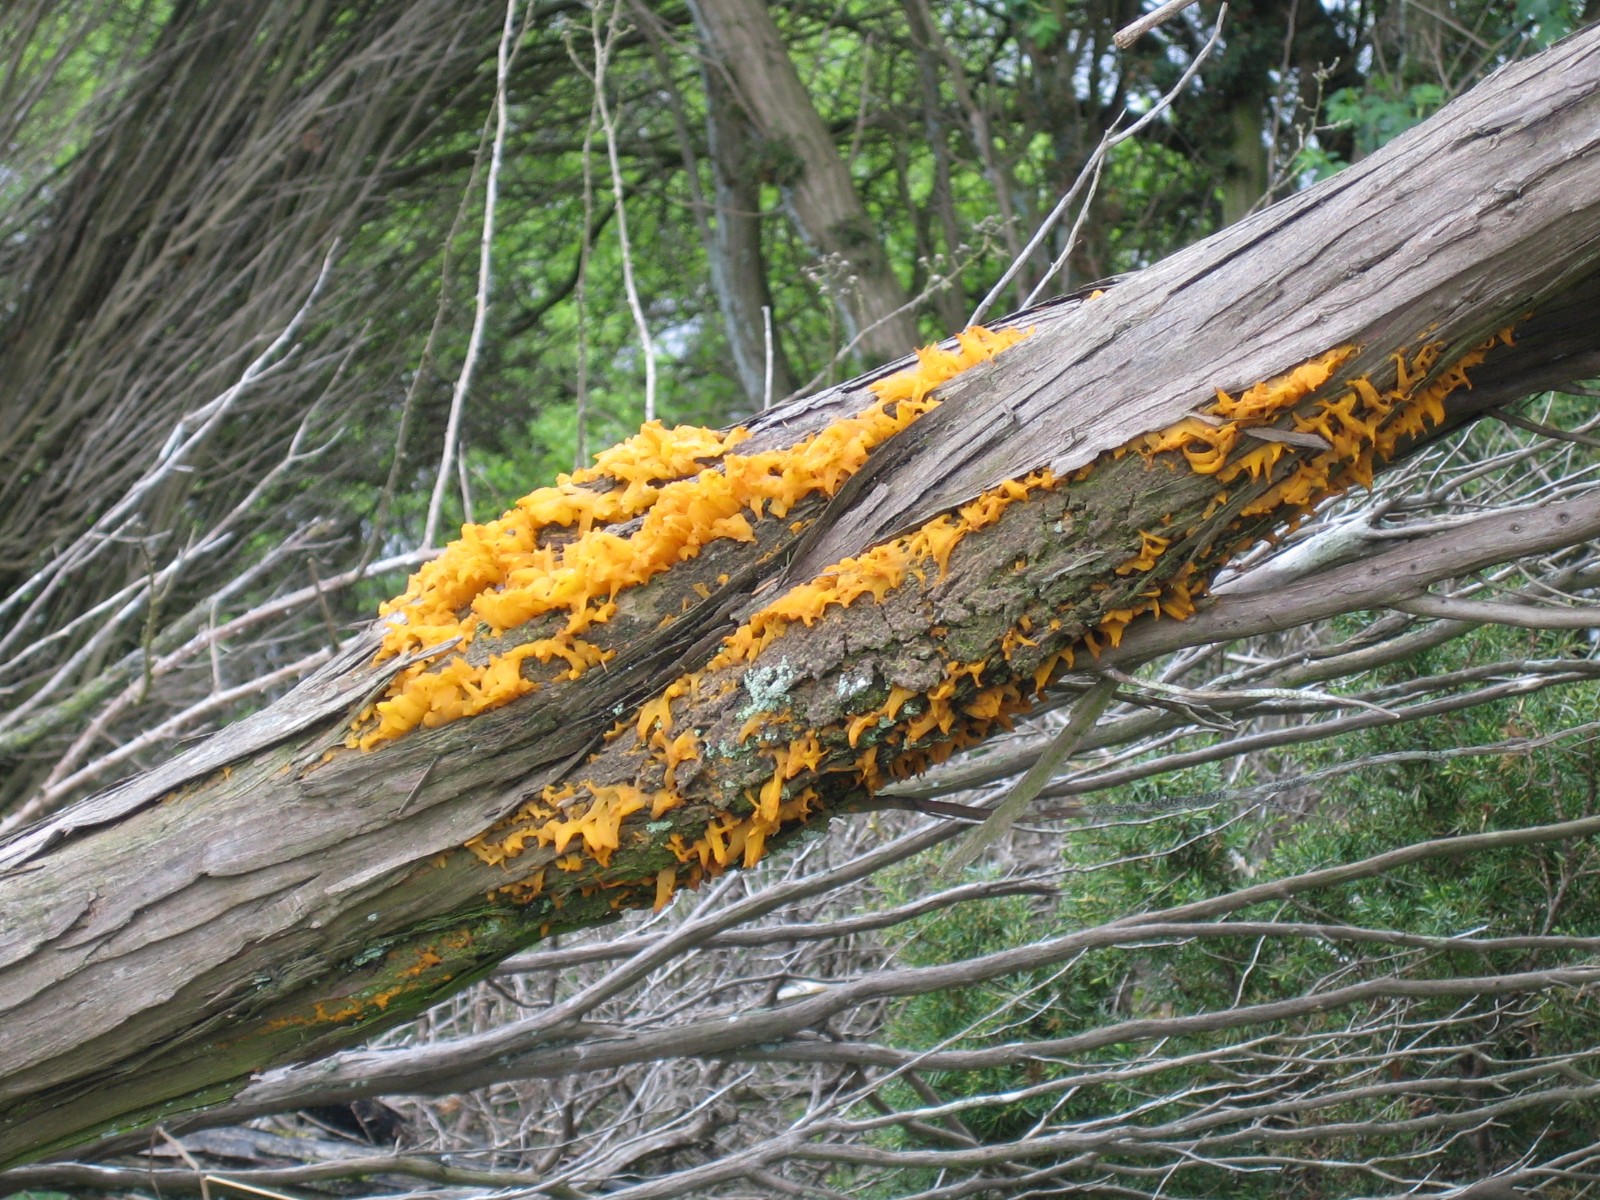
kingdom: Fungi
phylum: Basidiomycota
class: Pucciniomycetes
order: Pucciniales
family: Gymnosporangiaceae
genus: Gymnosporangium
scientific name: Gymnosporangium clavariiforme
